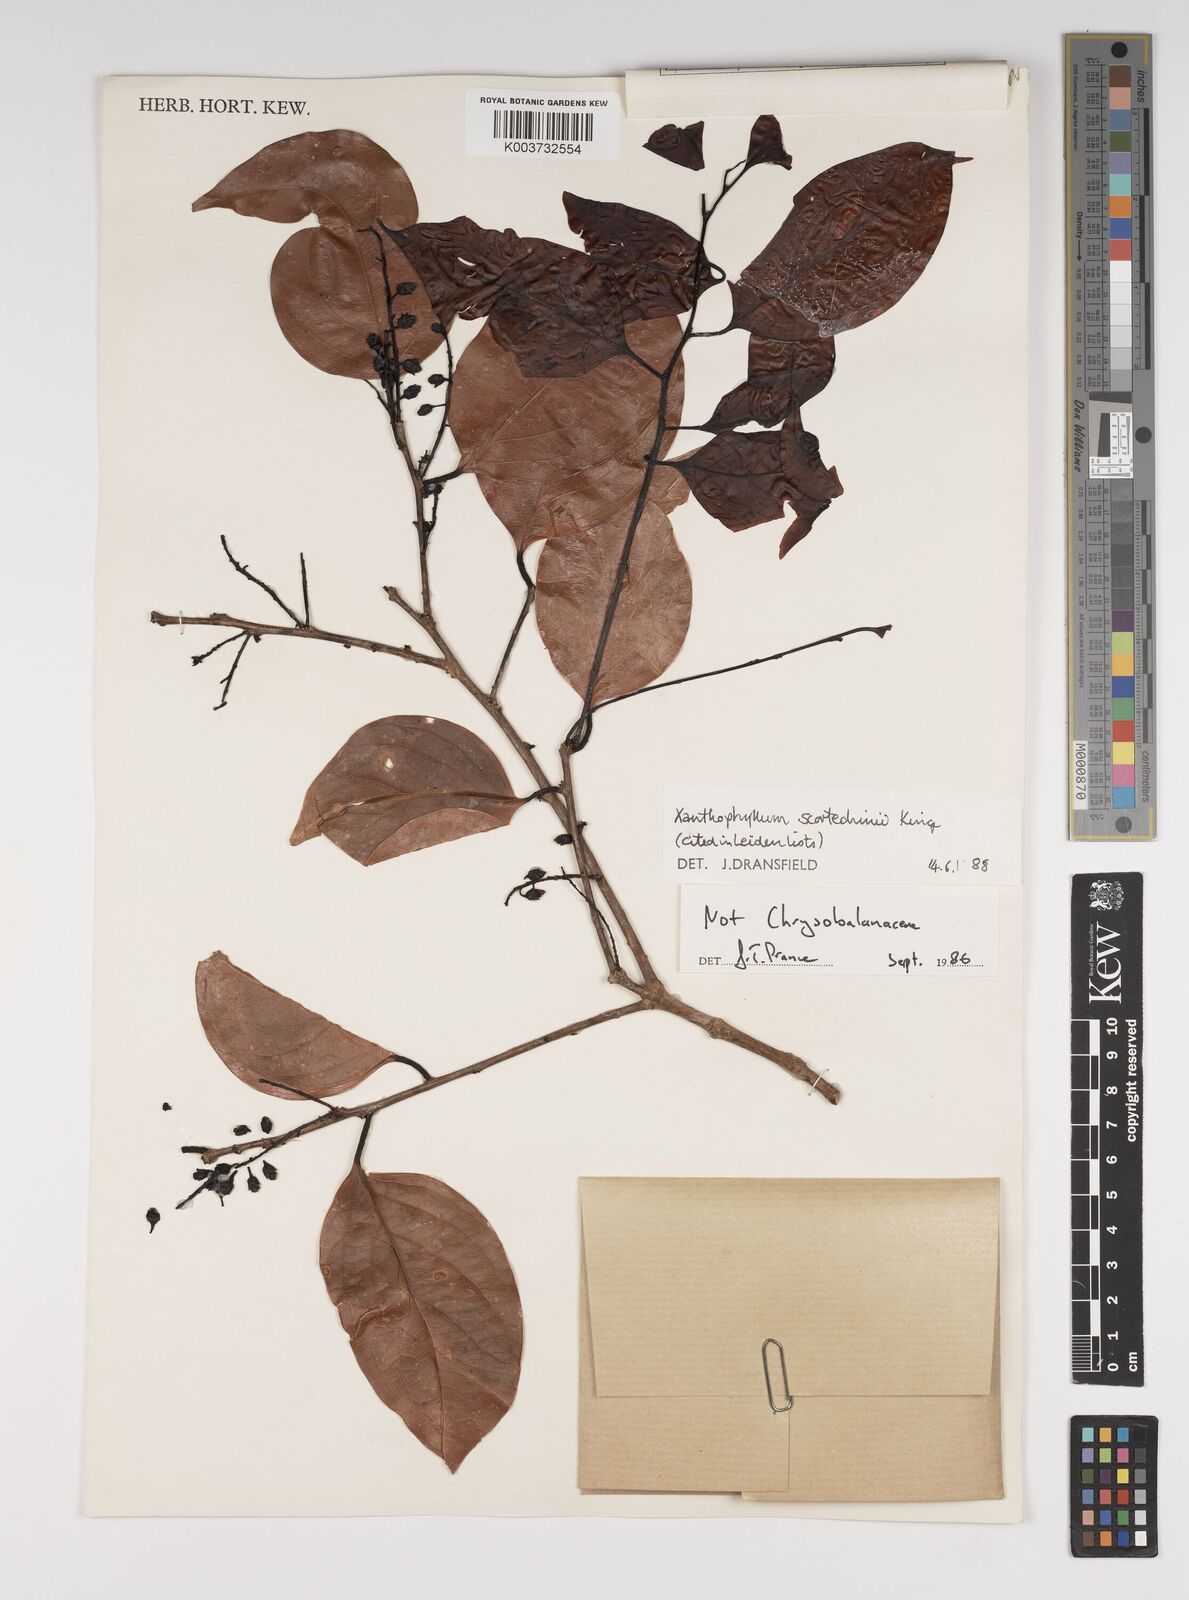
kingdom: Plantae
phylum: Tracheophyta
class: Magnoliopsida
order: Fabales
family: Polygalaceae
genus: Xanthophyllum
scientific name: Xanthophyllum obscurum
